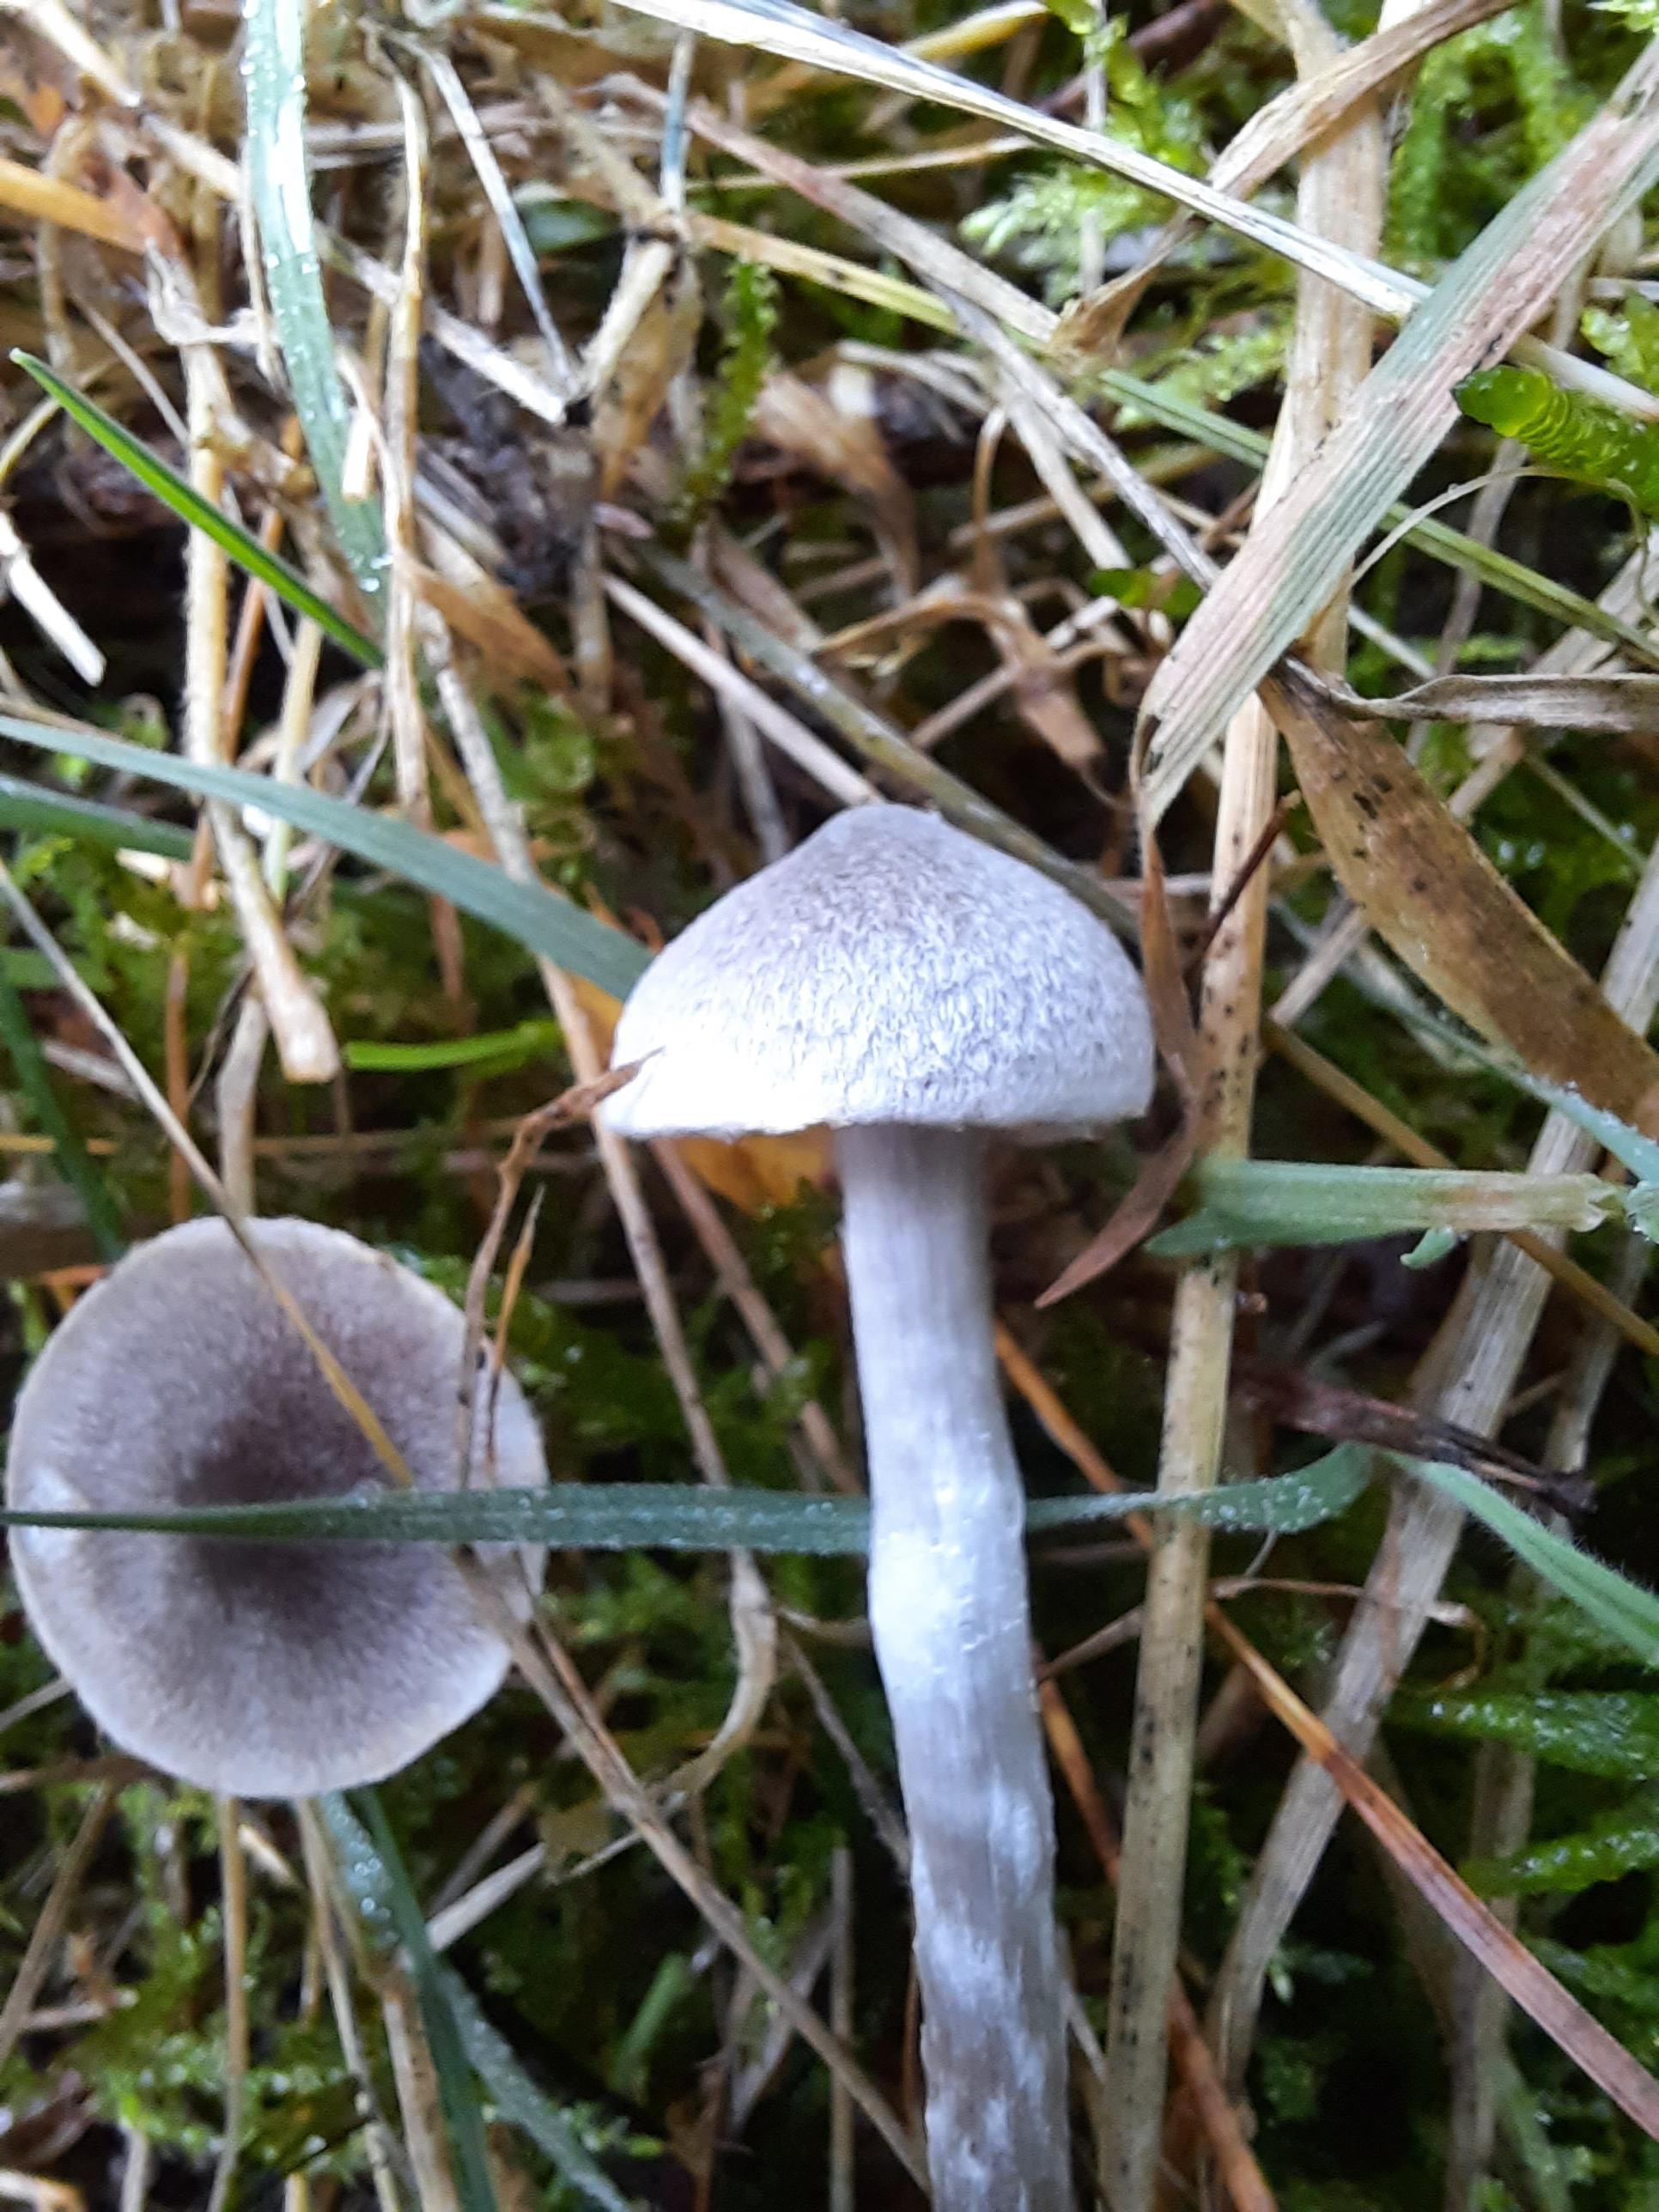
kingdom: Fungi
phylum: Basidiomycota
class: Agaricomycetes
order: Agaricales
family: Cortinariaceae
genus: Cortinarius
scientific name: Cortinarius
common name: pelargonie-slørhat
